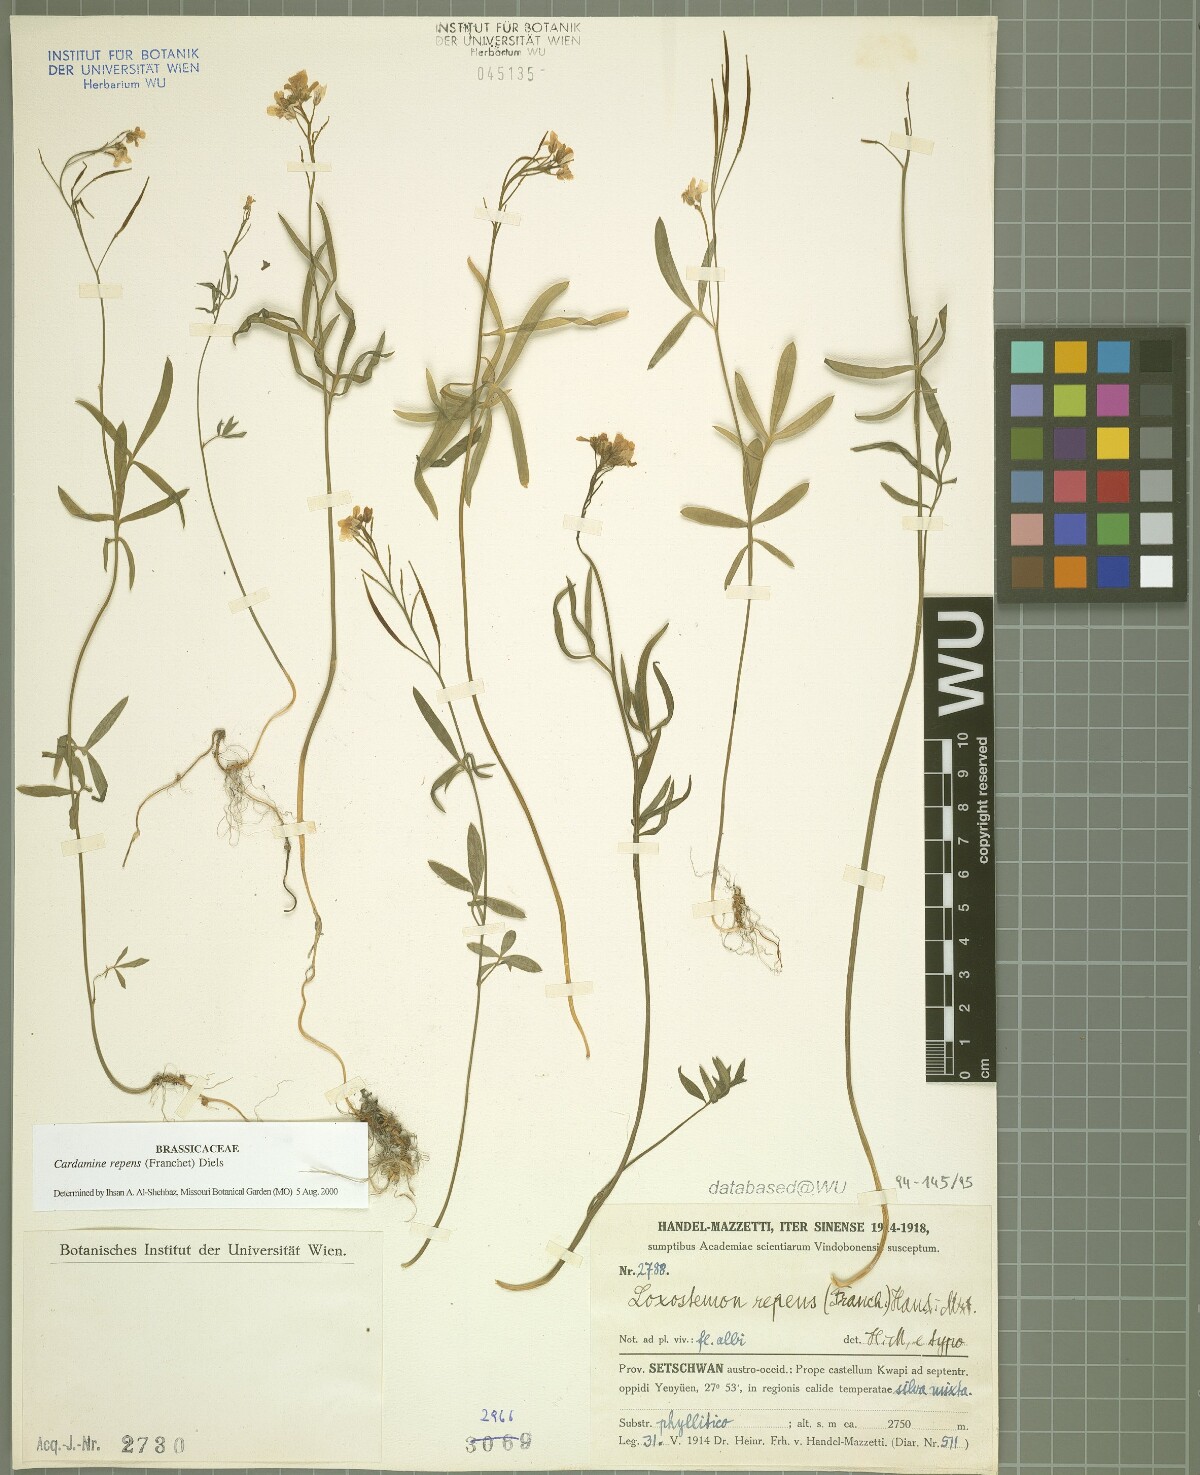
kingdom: Plantae
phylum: Tracheophyta
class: Magnoliopsida
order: Brassicales
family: Brassicaceae
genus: Cardamine
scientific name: Cardamine repens
